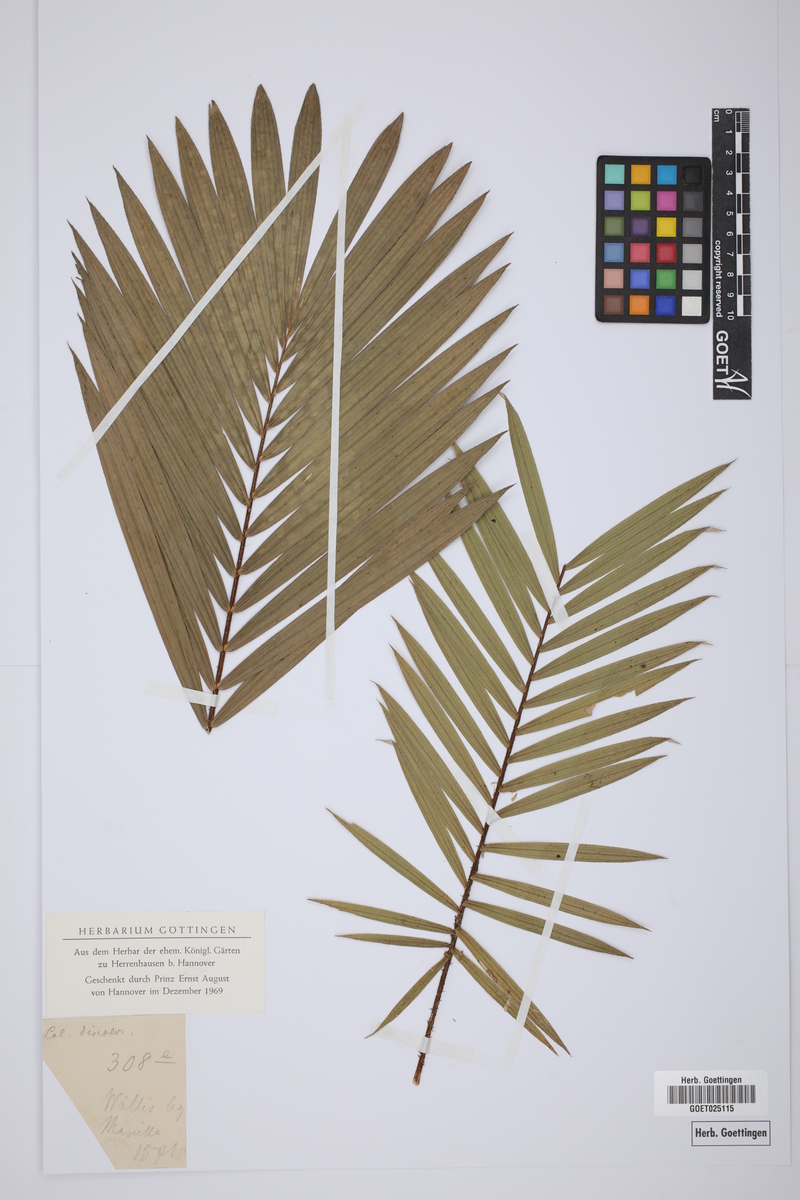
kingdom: Plantae
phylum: Tracheophyta
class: Liliopsida
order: Arecales
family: Arecaceae
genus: Calamus
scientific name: Calamus discolor
